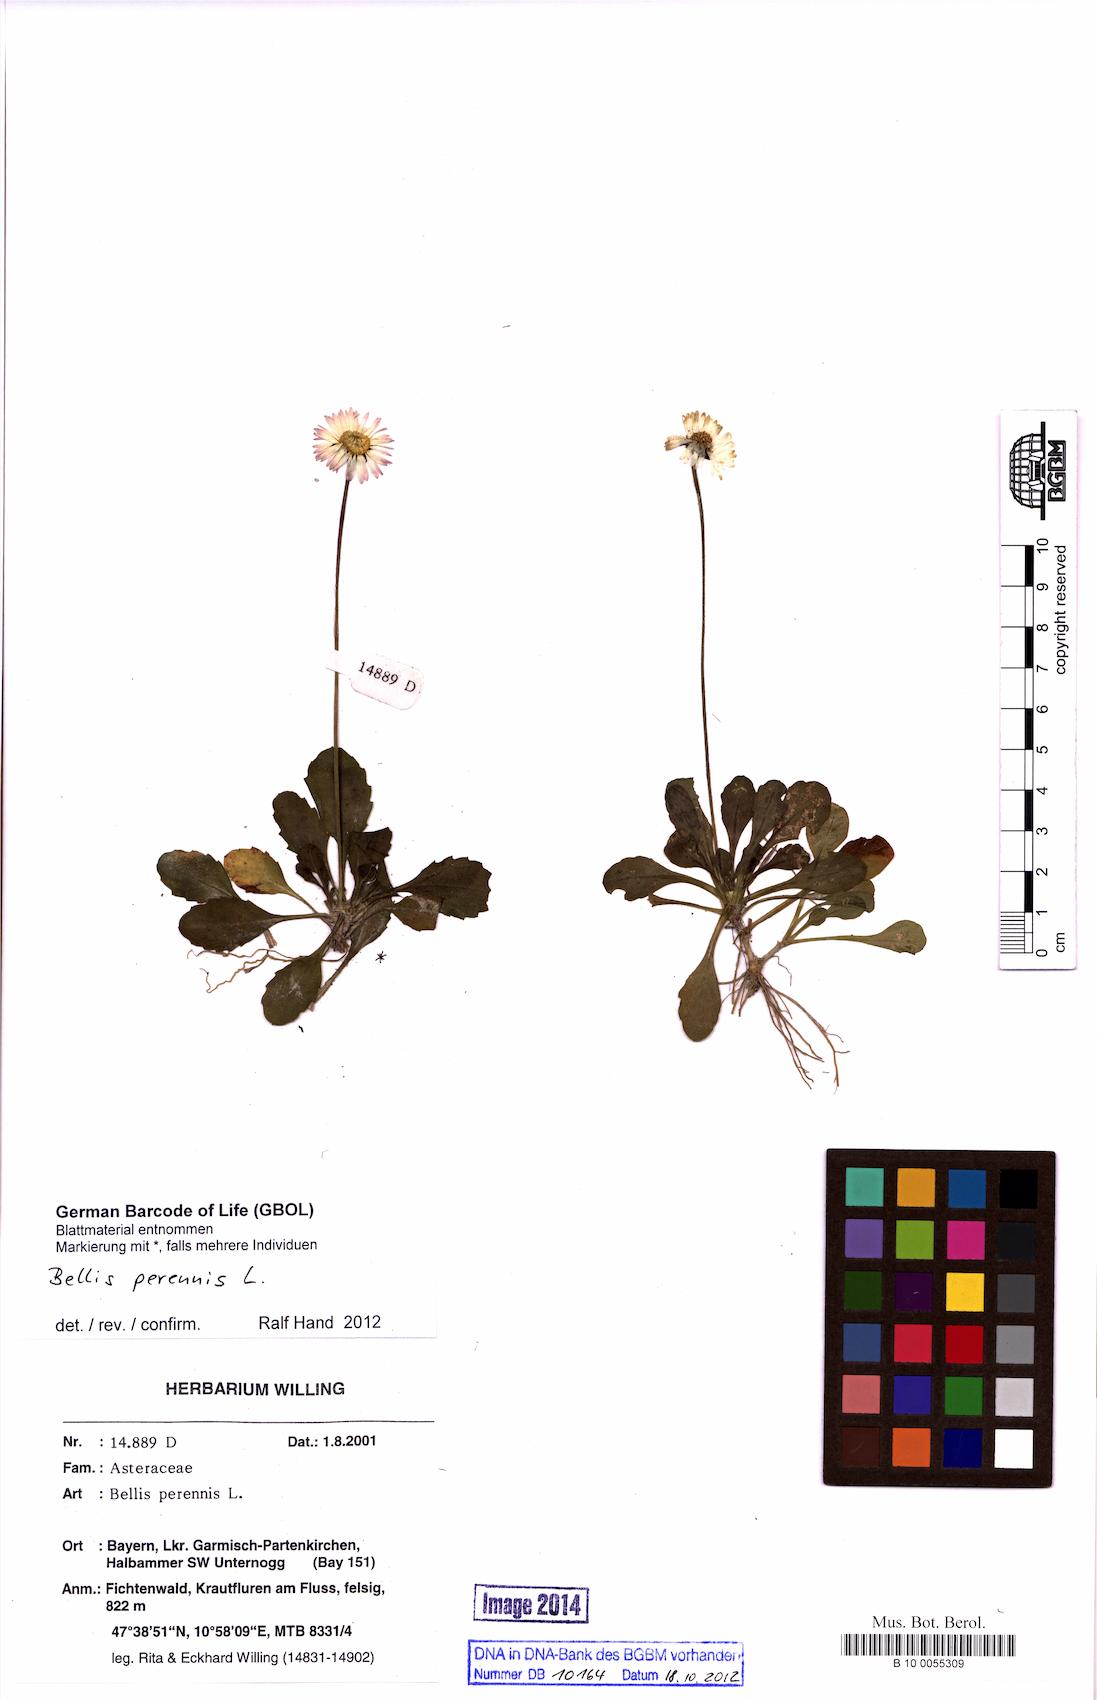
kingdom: Plantae
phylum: Tracheophyta
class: Magnoliopsida
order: Asterales
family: Asteraceae
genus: Bellis
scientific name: Bellis perennis
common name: Lawndaisy
